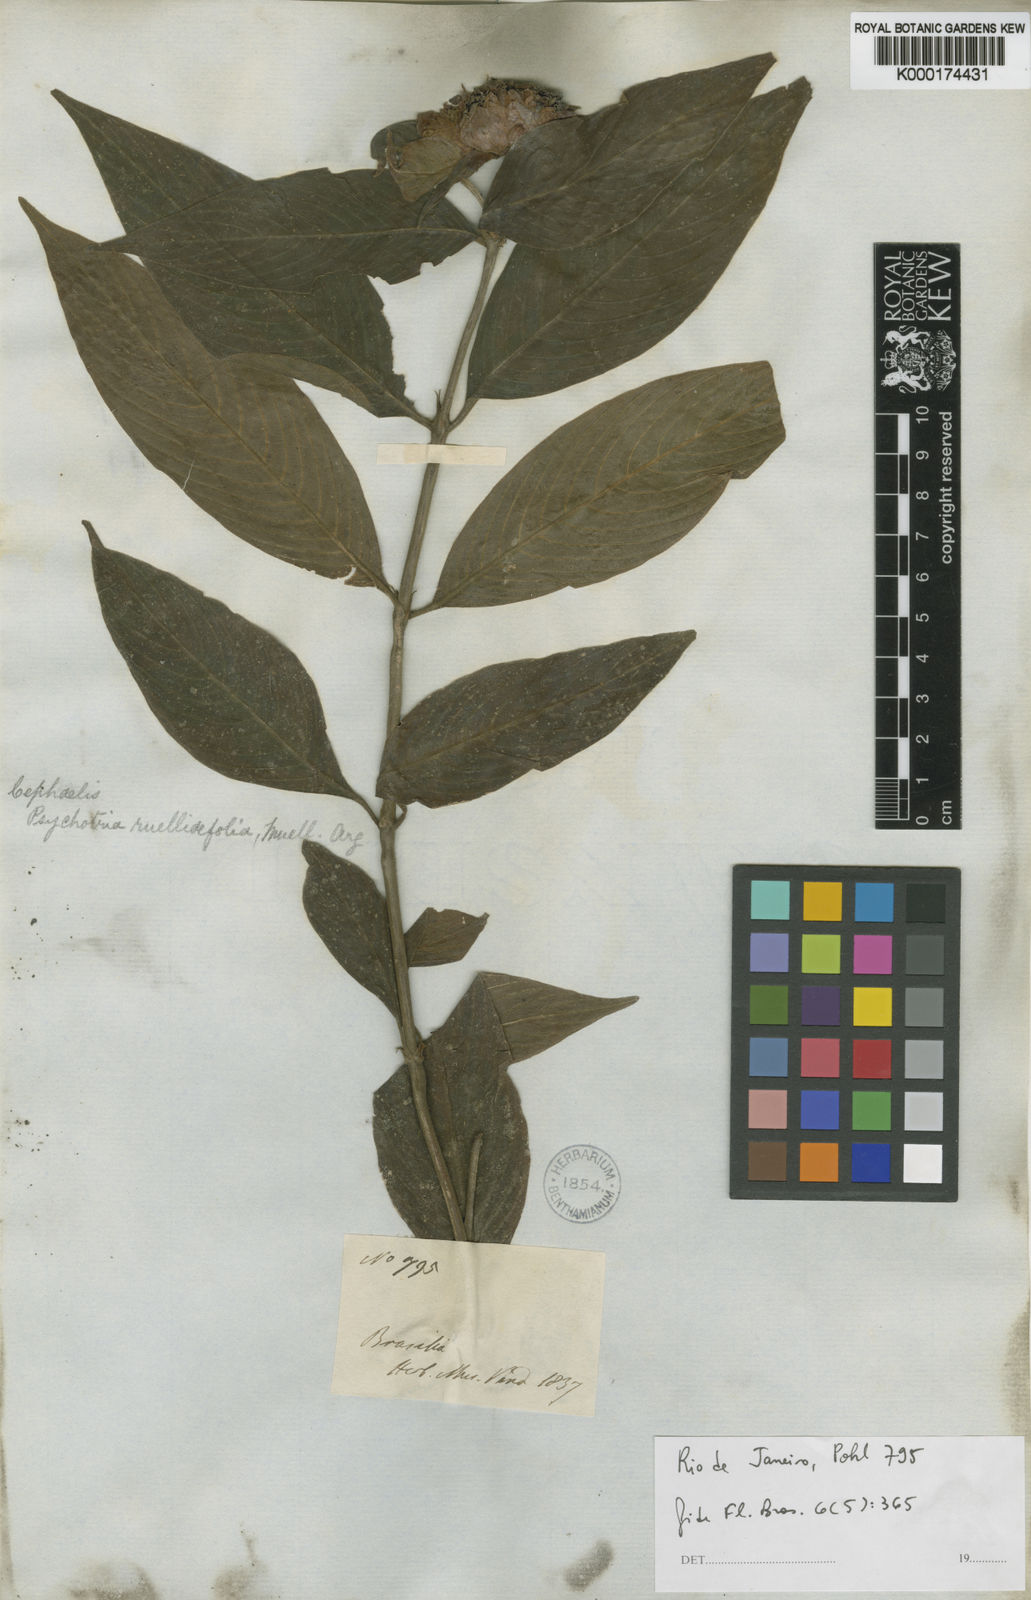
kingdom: Plantae
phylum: Tracheophyta
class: Magnoliopsida
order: Gentianales
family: Rubiaceae
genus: Psychotria
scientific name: Psychotria
